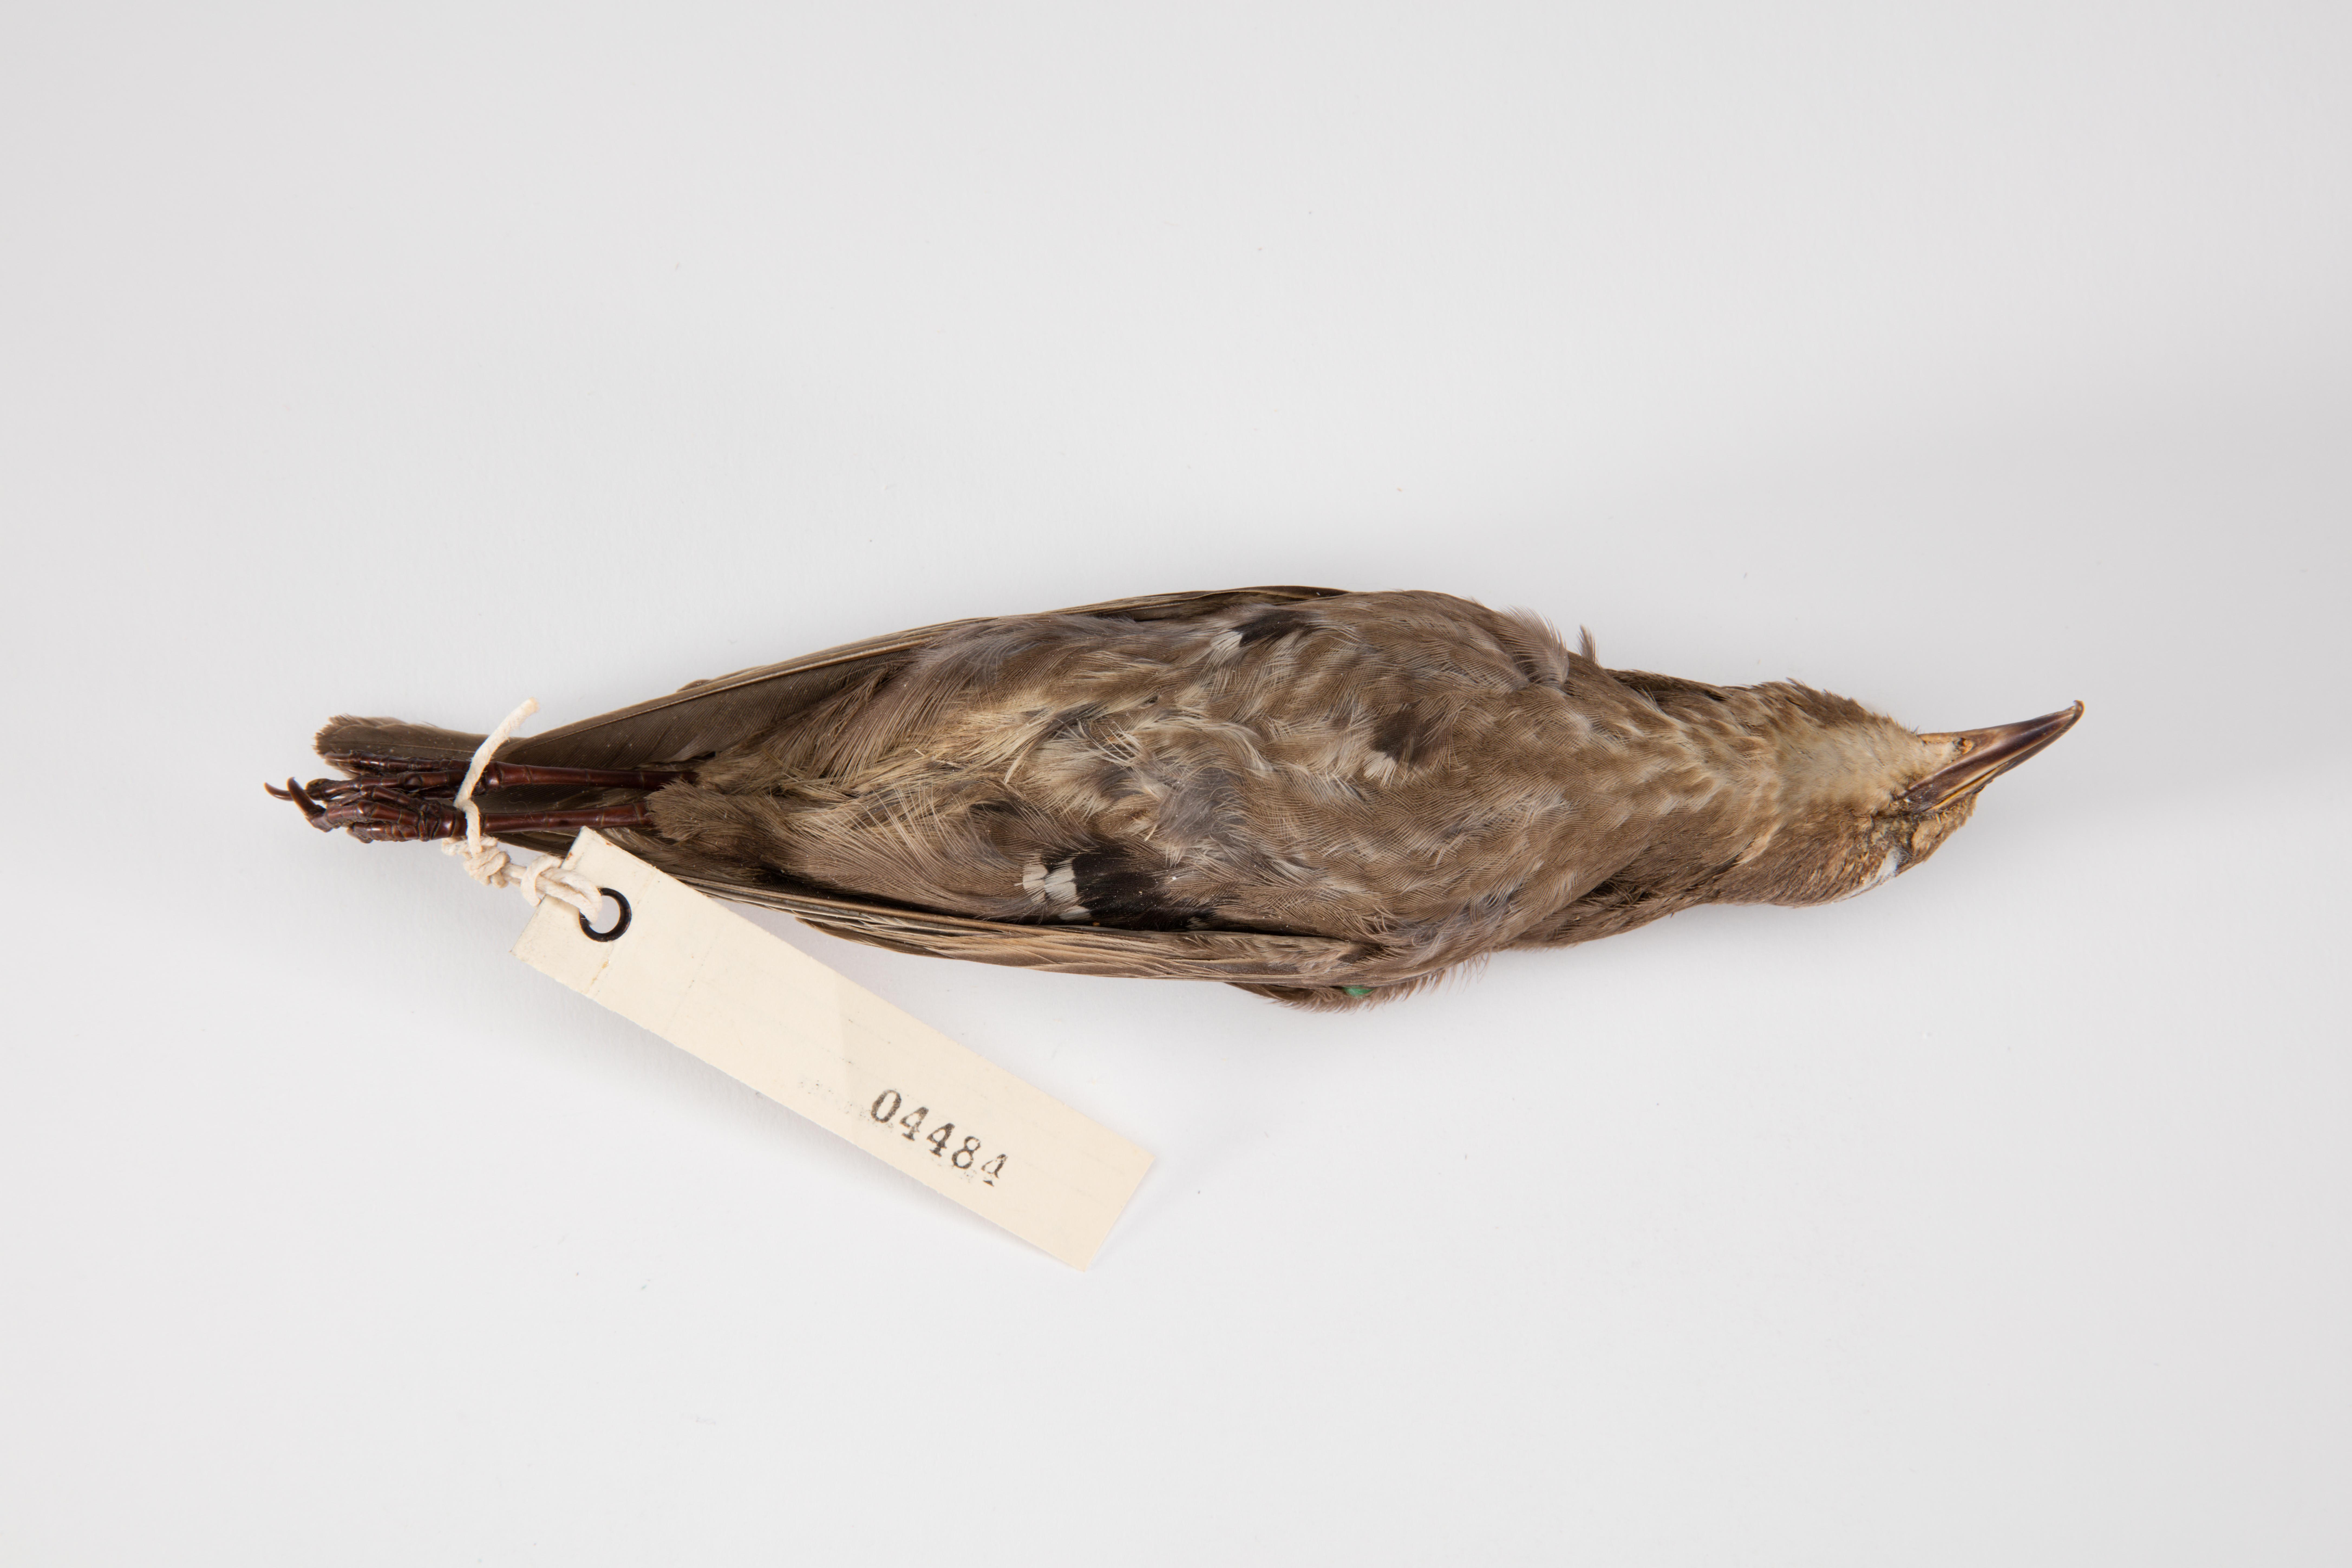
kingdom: Animalia
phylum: Chordata
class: Aves
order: Passeriformes
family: Sturnidae
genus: Sturnus
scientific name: Sturnus vulgaris
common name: Common starling
